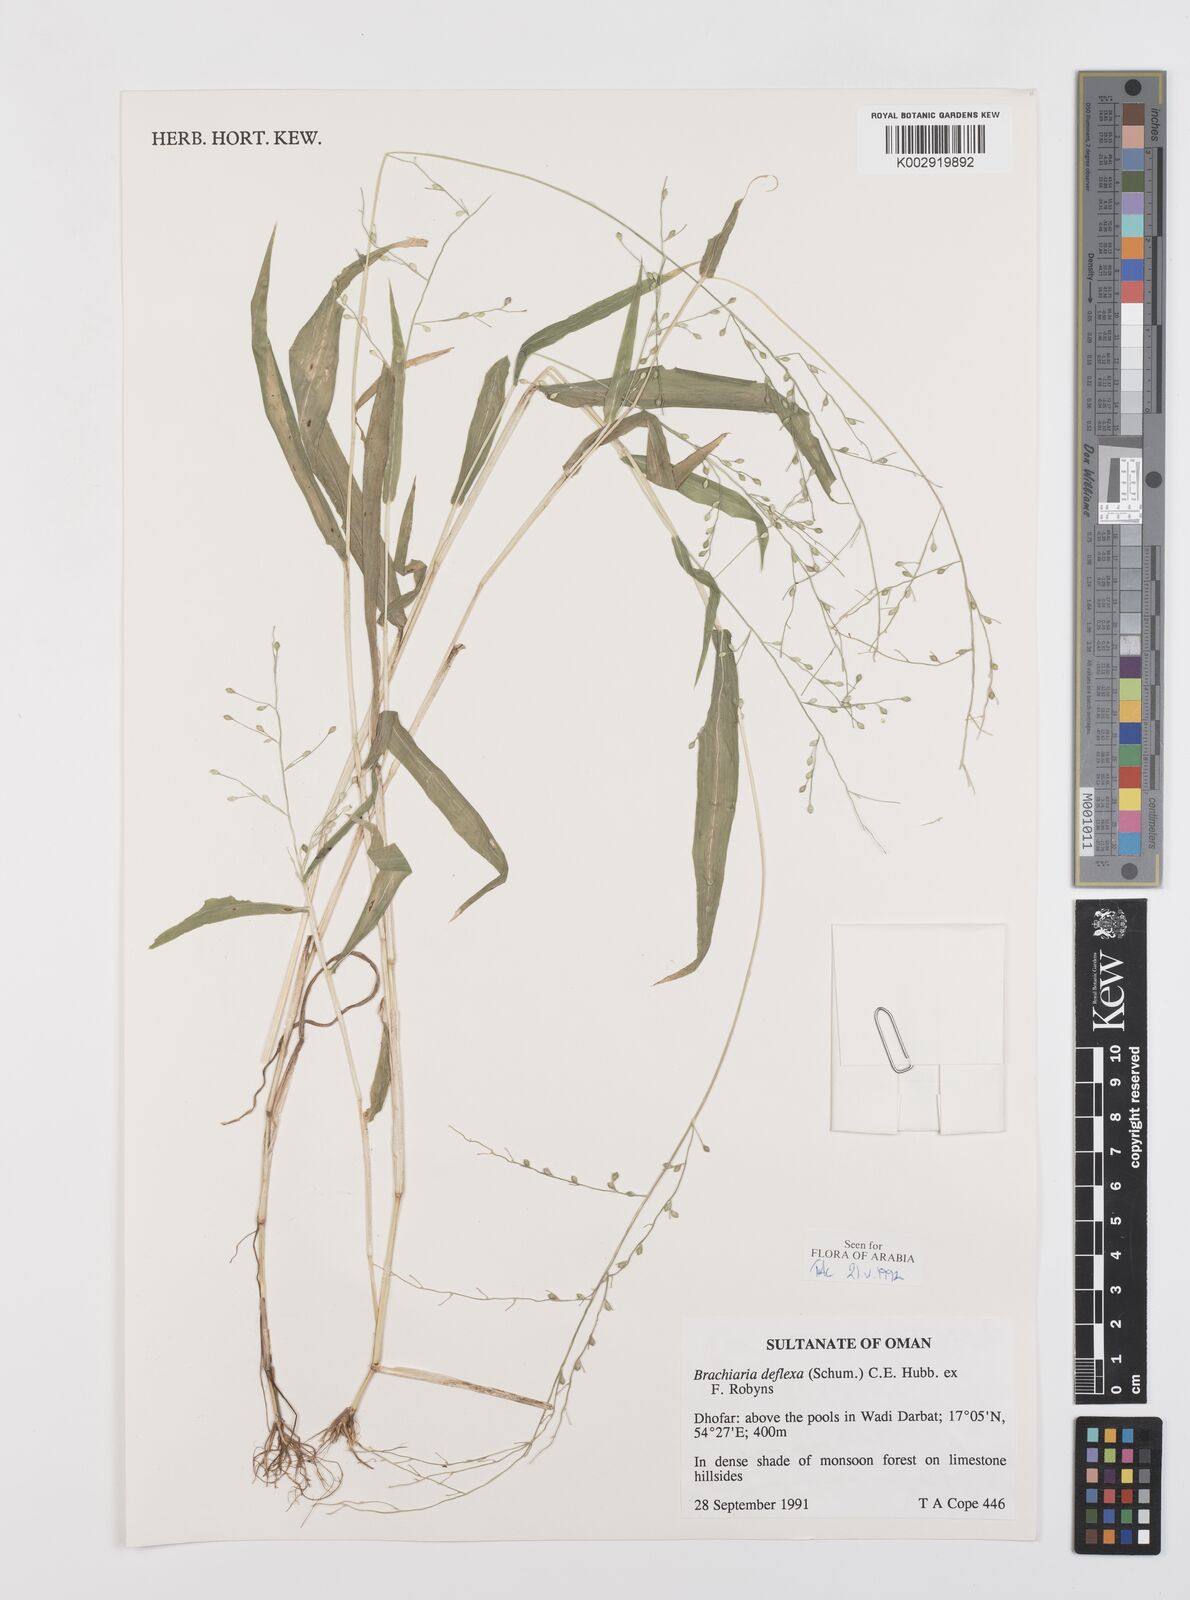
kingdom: Plantae
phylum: Tracheophyta
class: Liliopsida
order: Poales
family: Poaceae
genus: Urochloa
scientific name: Urochloa deflexa
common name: Guinea millet
